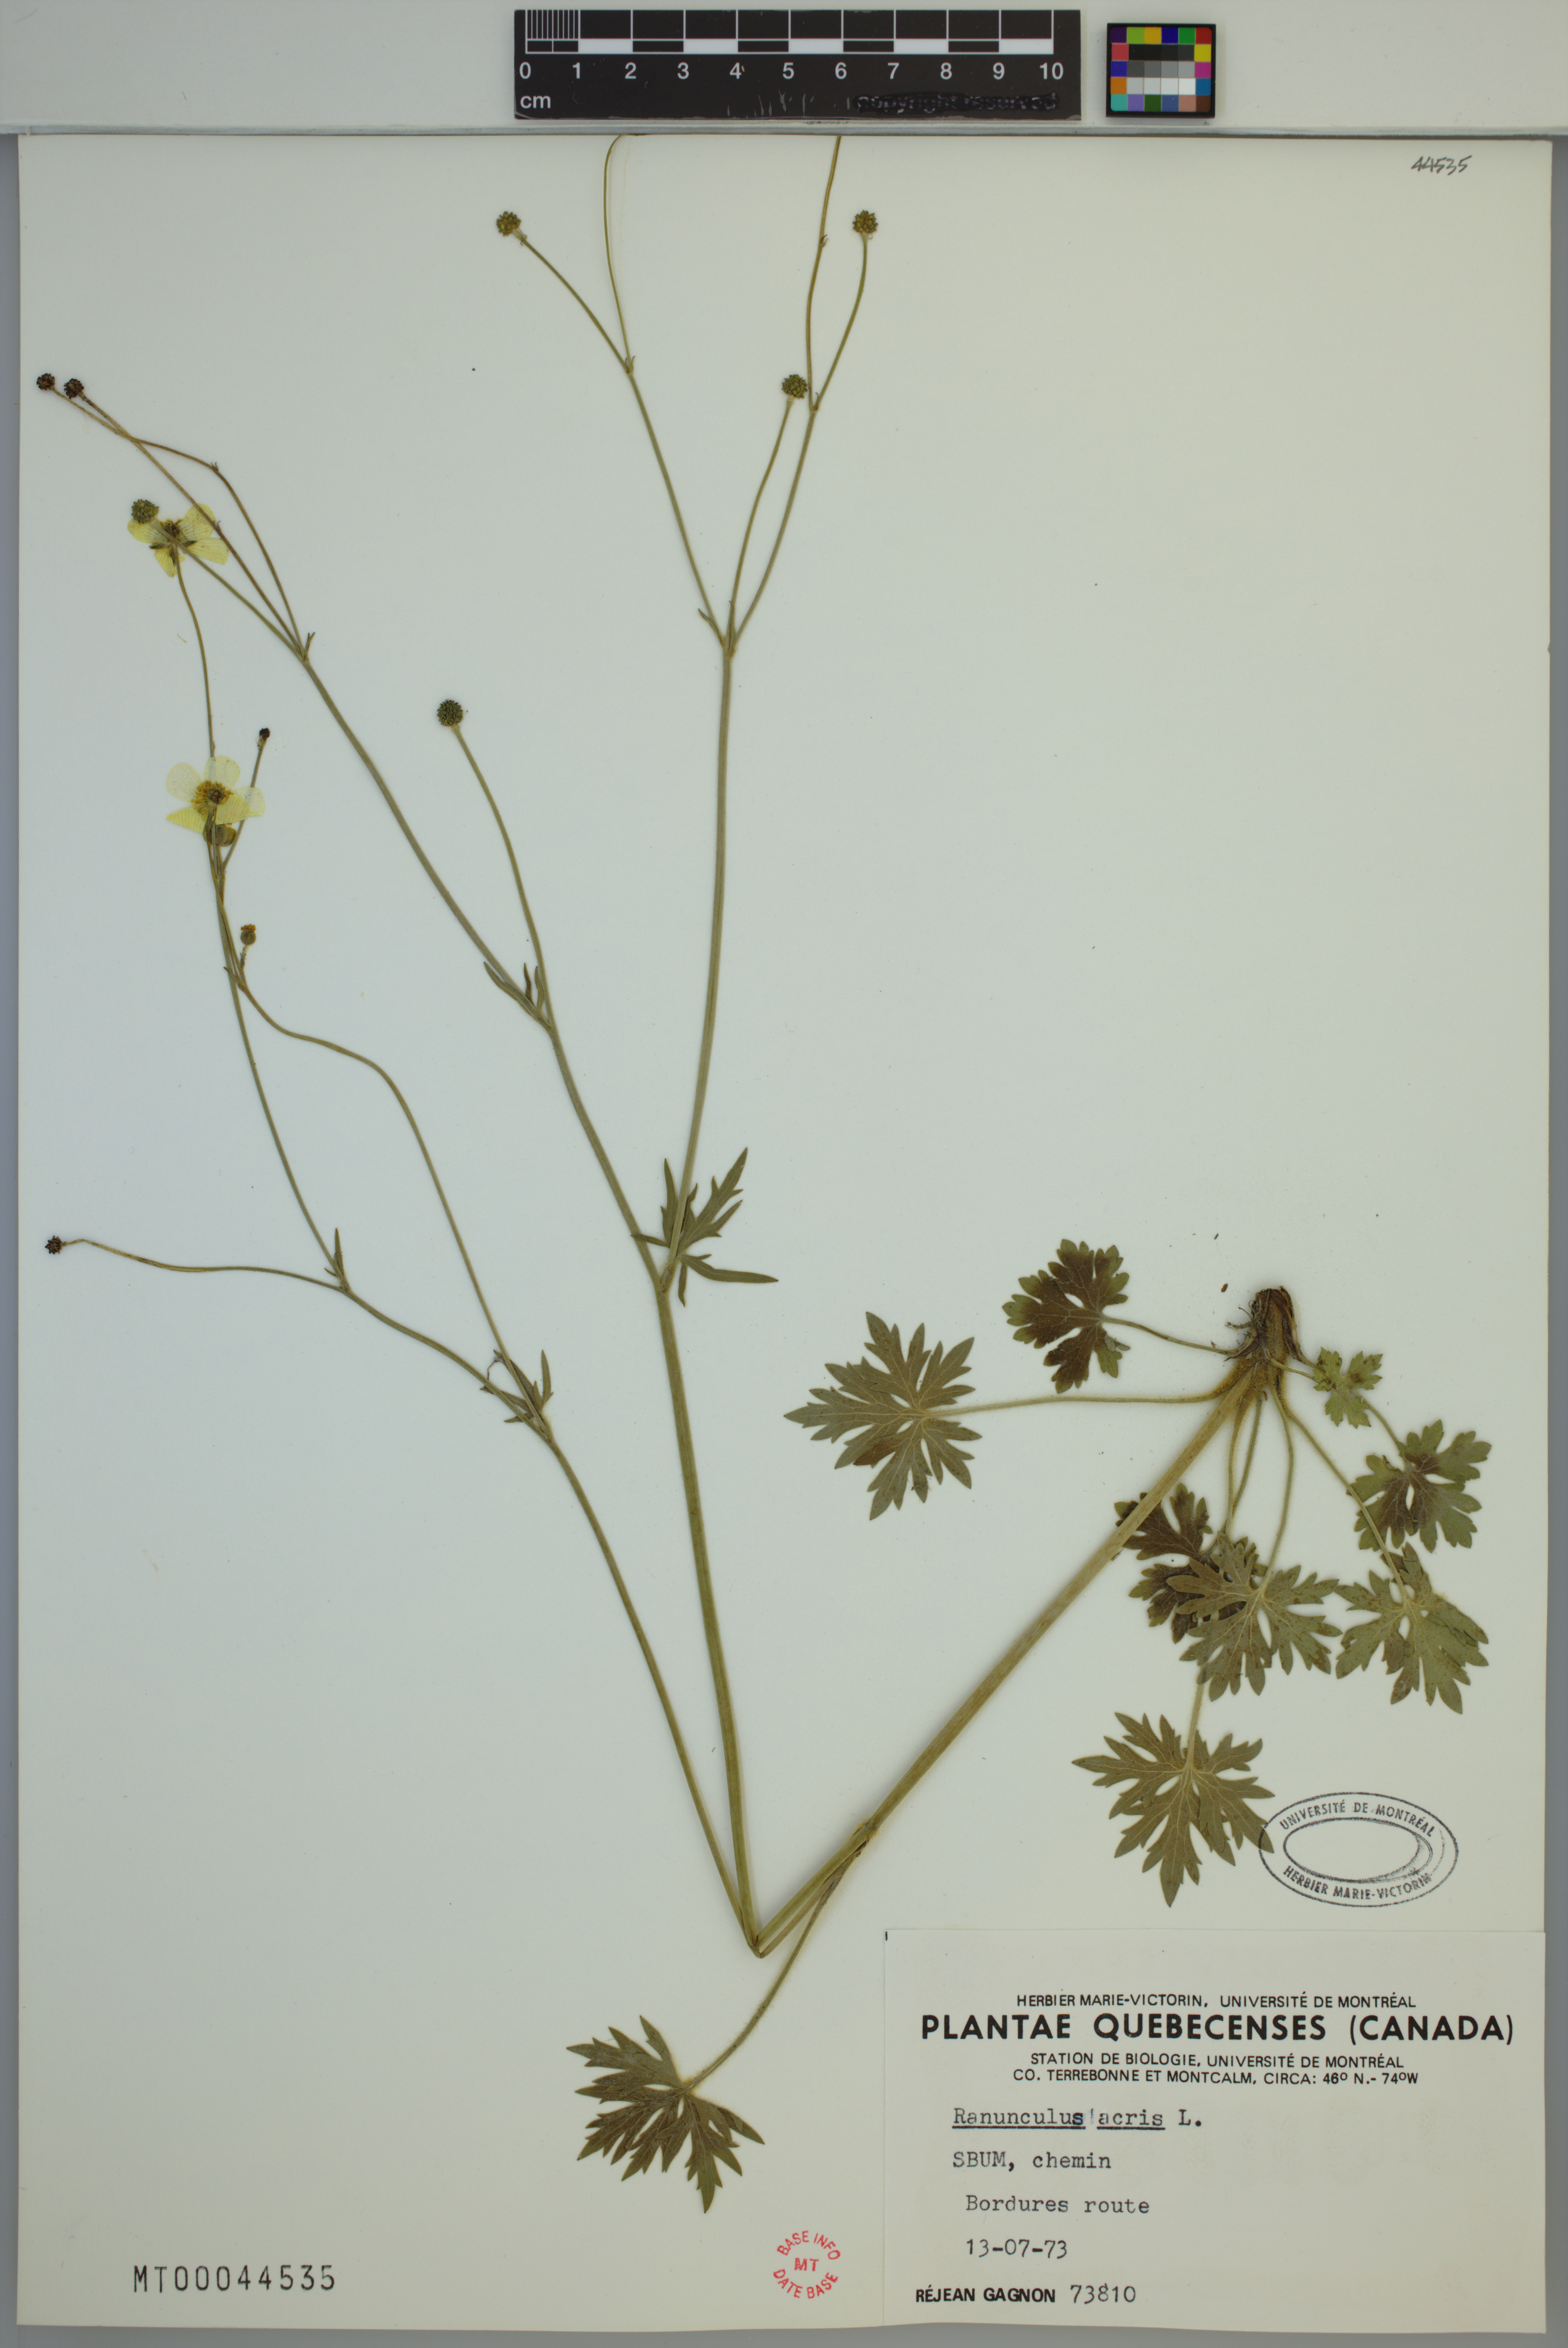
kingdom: Plantae
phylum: Tracheophyta
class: Magnoliopsida
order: Ranunculales
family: Ranunculaceae
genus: Ranunculus
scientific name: Ranunculus acris
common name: Meadow buttercup
